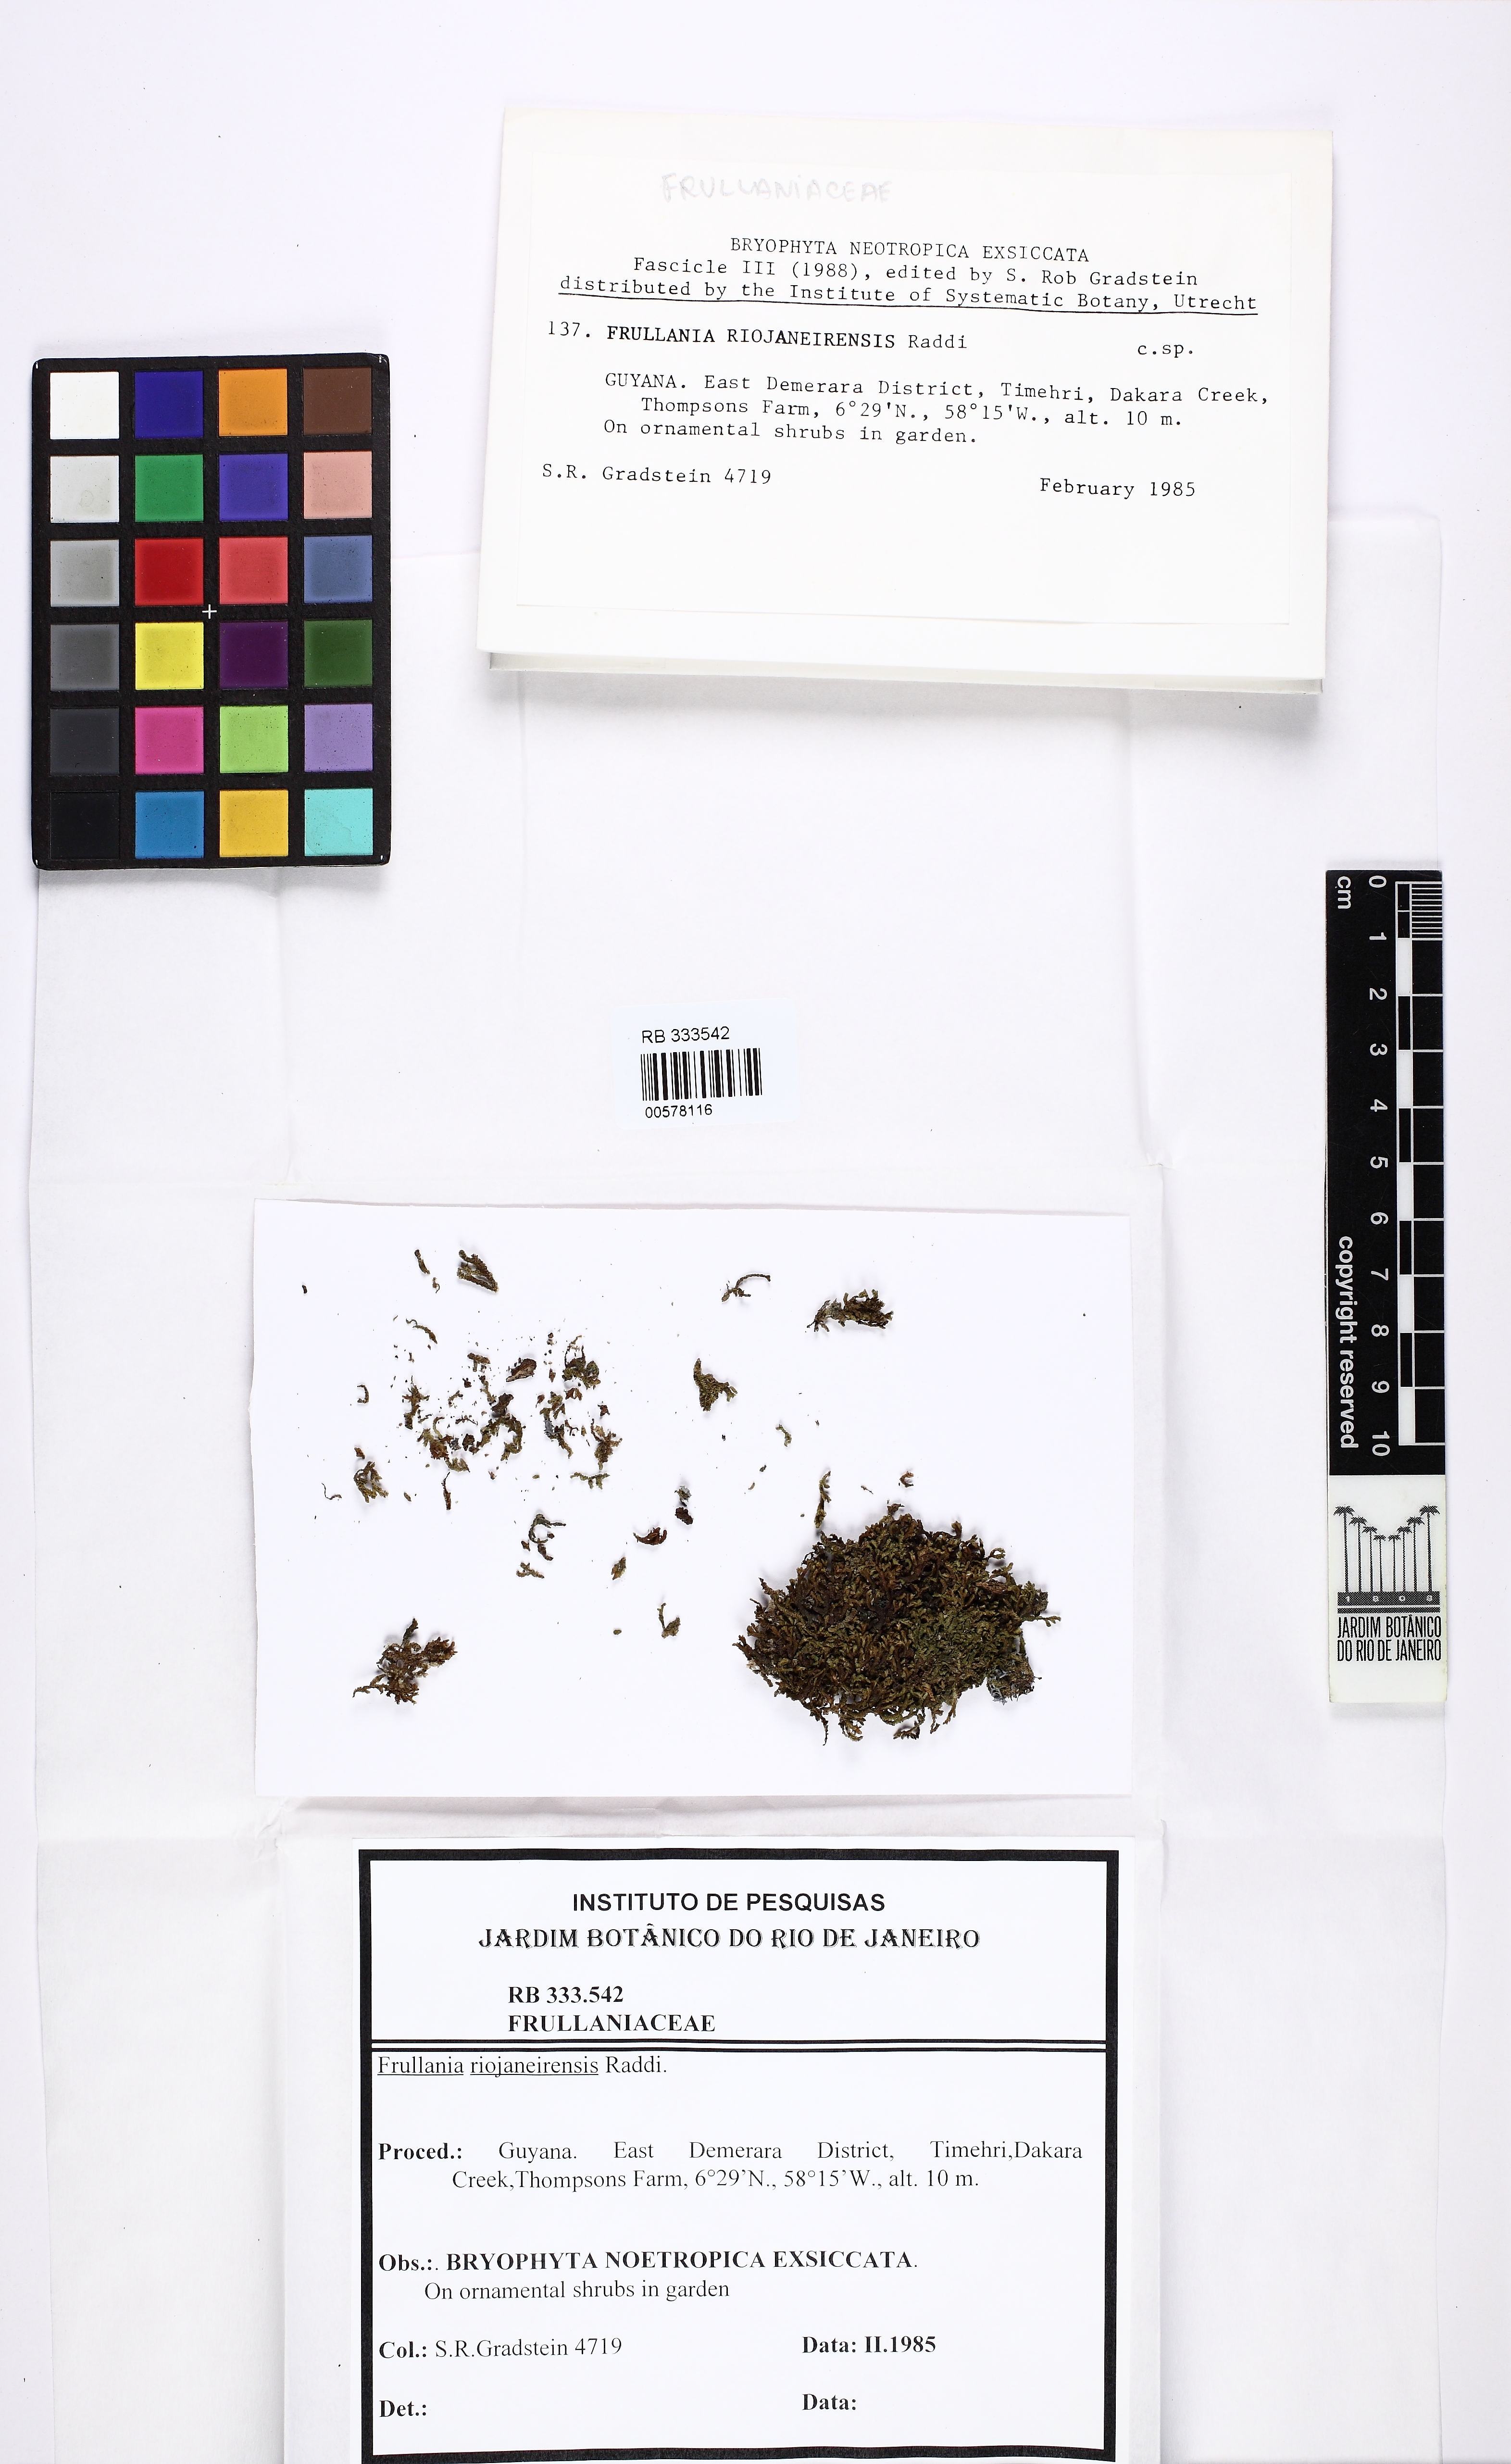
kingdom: Plantae
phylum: Marchantiophyta
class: Jungermanniopsida
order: Porellales
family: Frullaniaceae
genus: Frullania
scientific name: Frullania riojaneirensis
